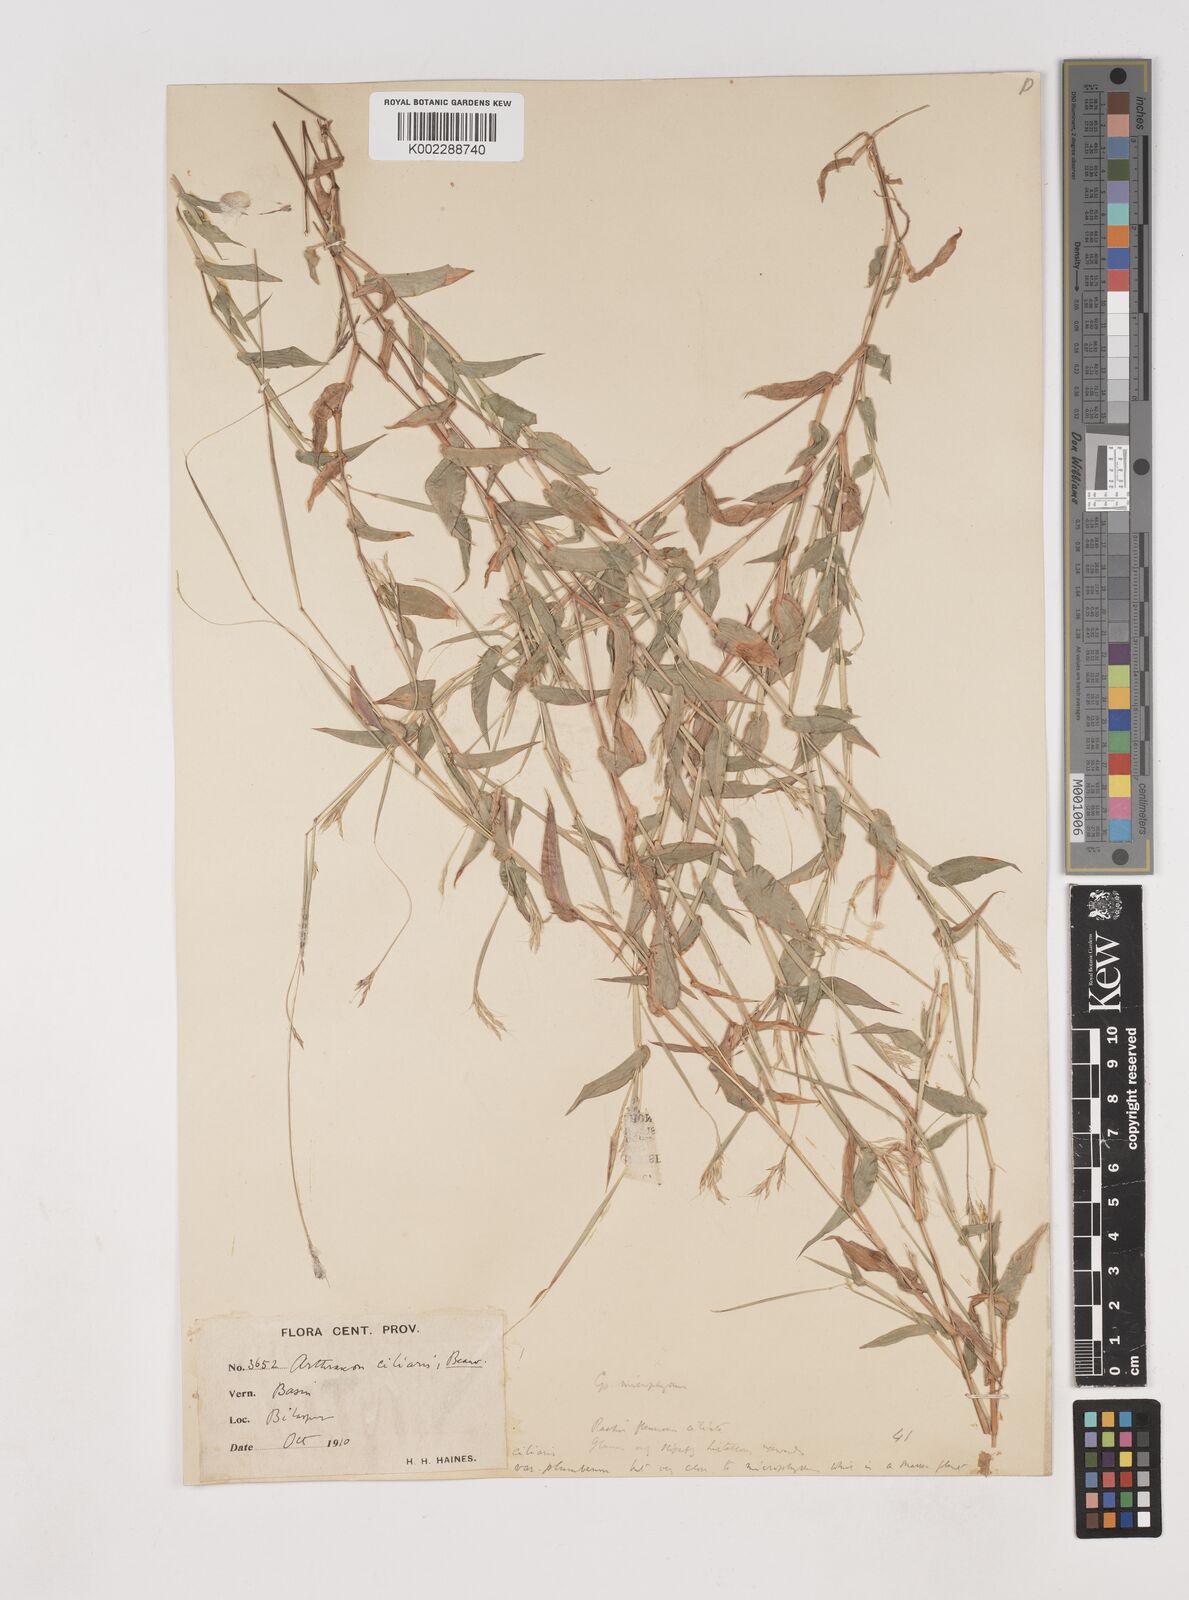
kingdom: Plantae
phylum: Tracheophyta
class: Liliopsida
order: Poales
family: Poaceae
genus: Arthraxon
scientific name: Arthraxon hispidus
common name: Small carpgrass
